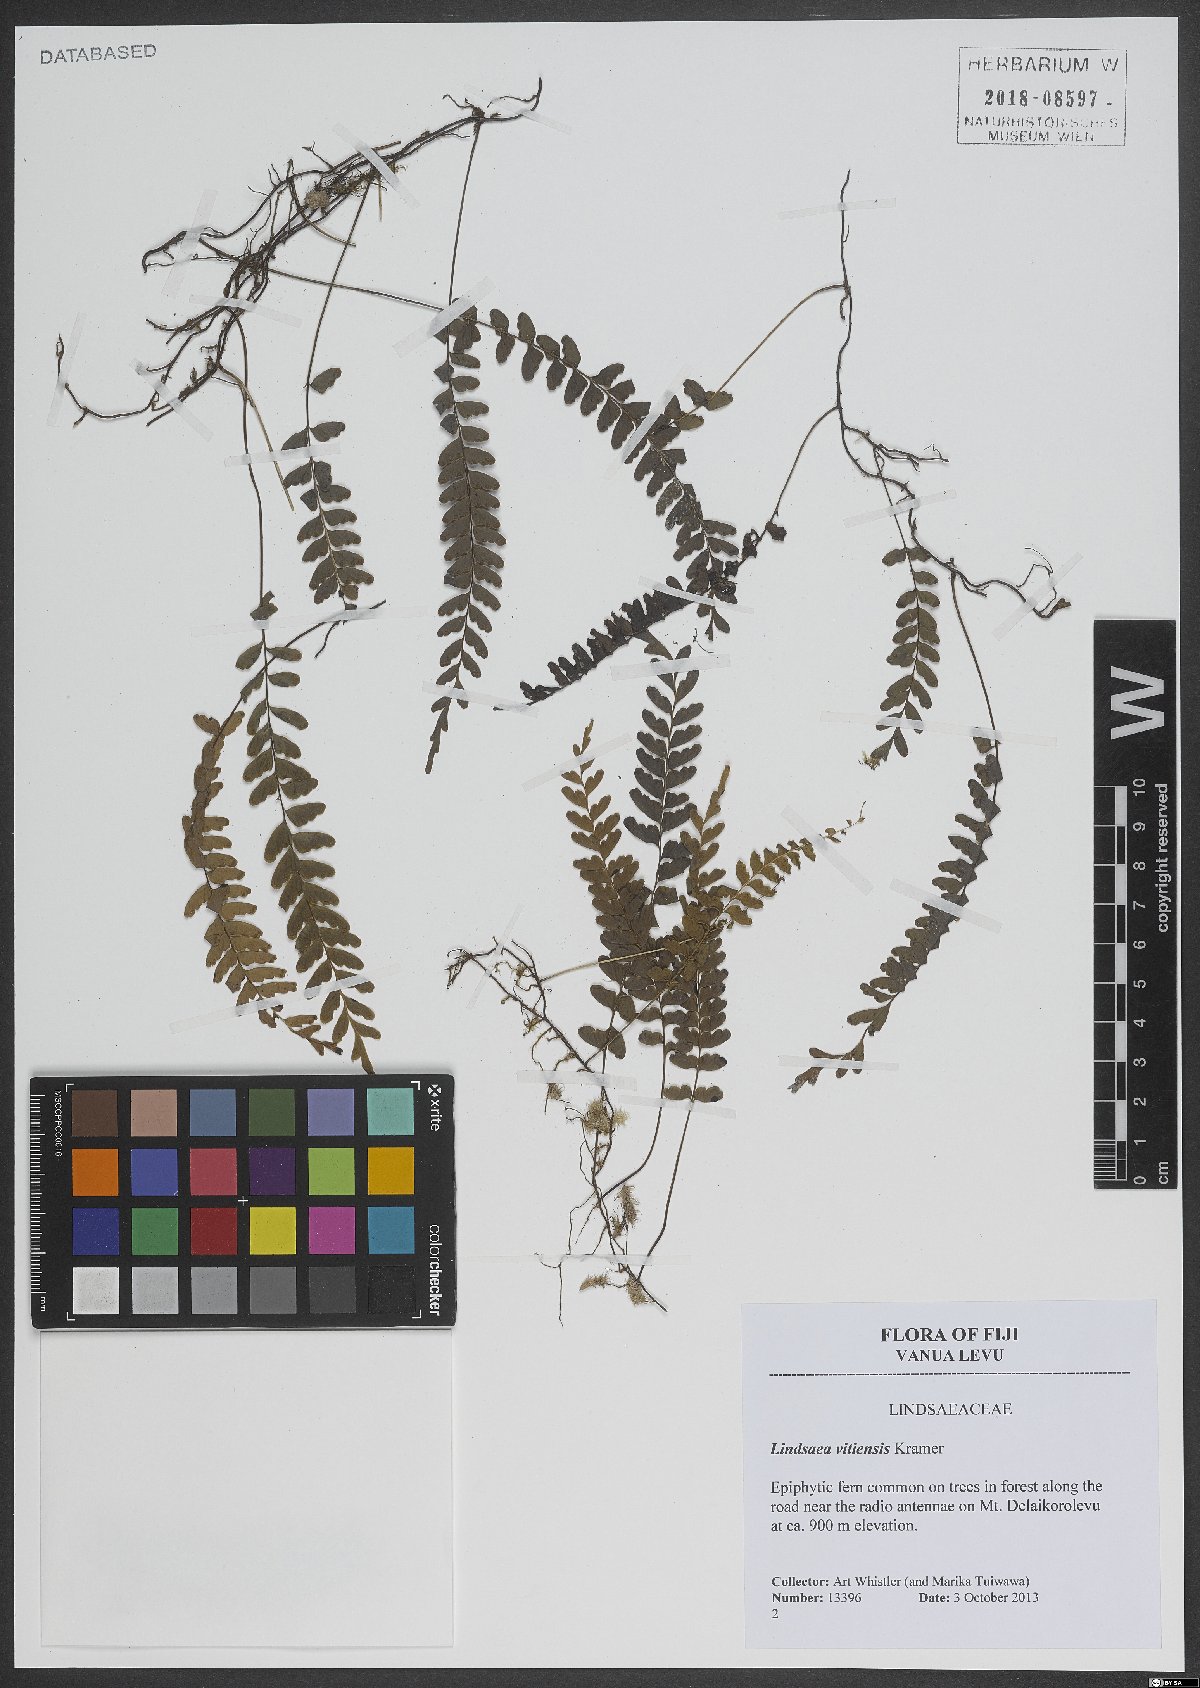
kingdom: Plantae
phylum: Tracheophyta
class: Polypodiopsida
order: Polypodiales
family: Lindsaeaceae
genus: Lindsaea
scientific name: Lindsaea vitiensis
